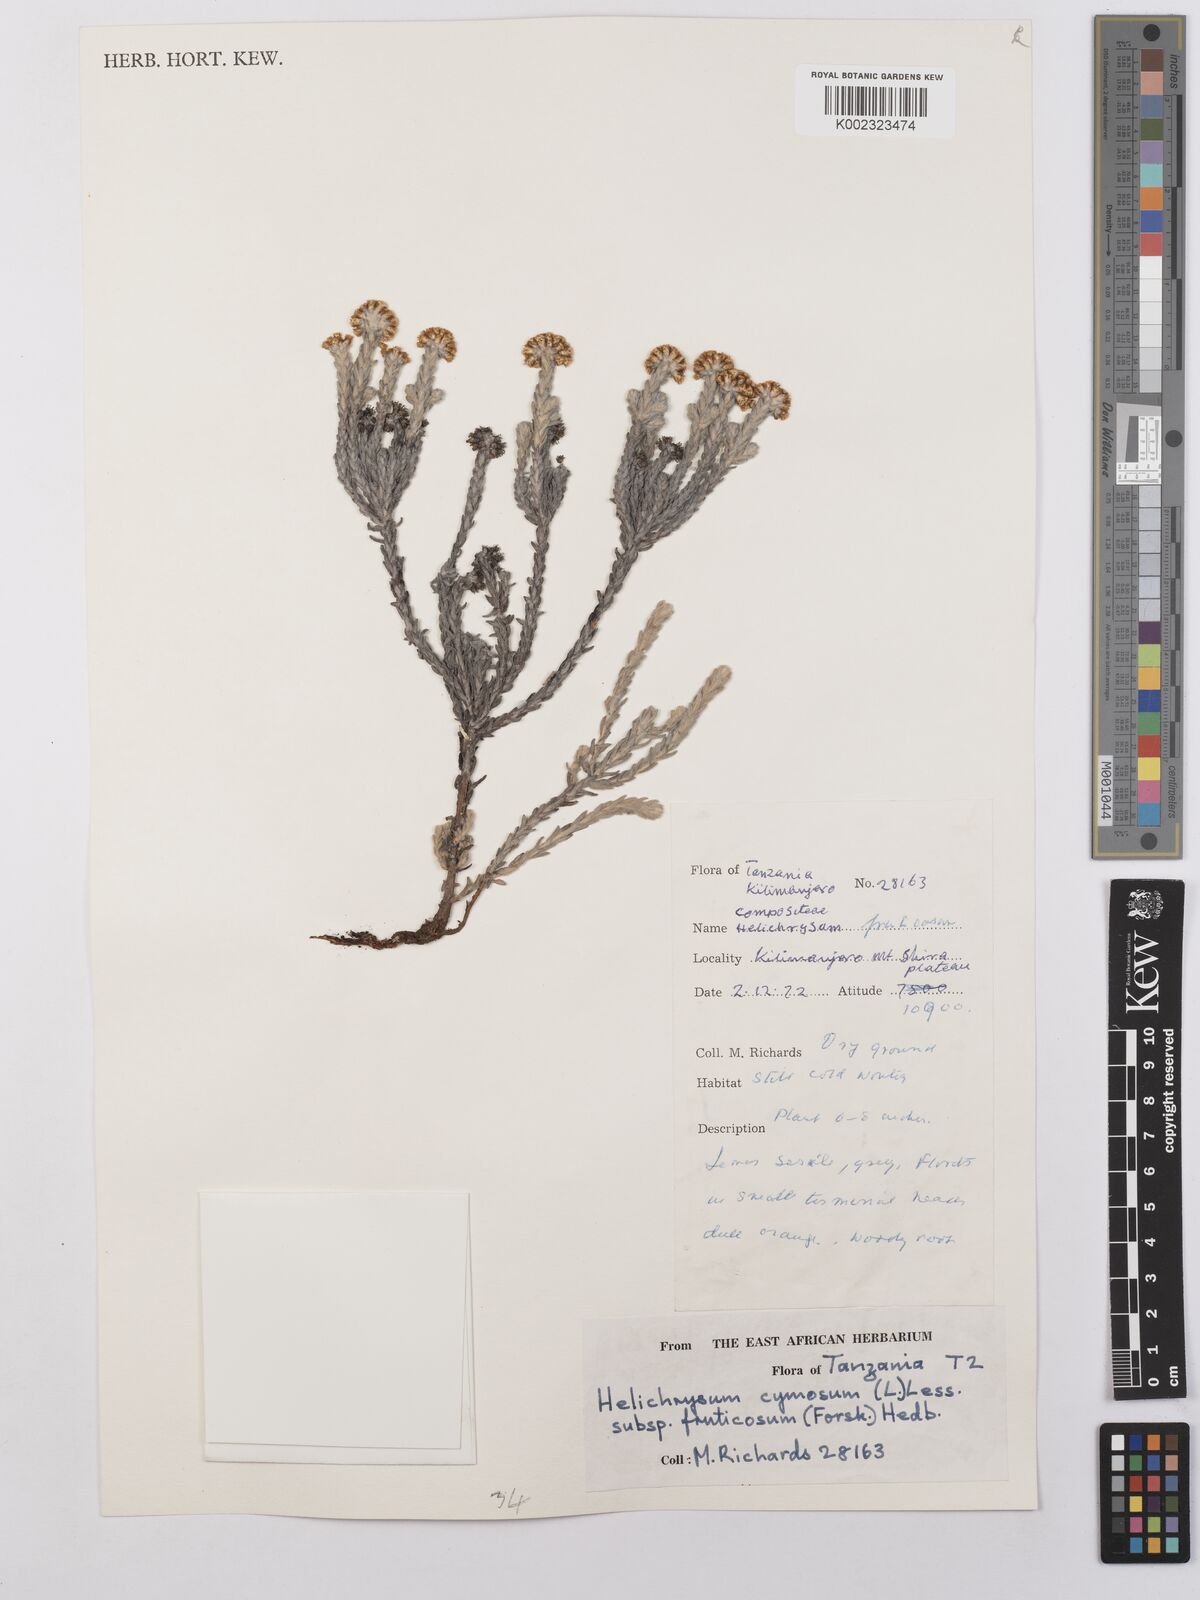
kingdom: Plantae
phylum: Tracheophyta
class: Magnoliopsida
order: Asterales
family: Asteraceae
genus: Helichrysum
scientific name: Helichrysum forskahlii
